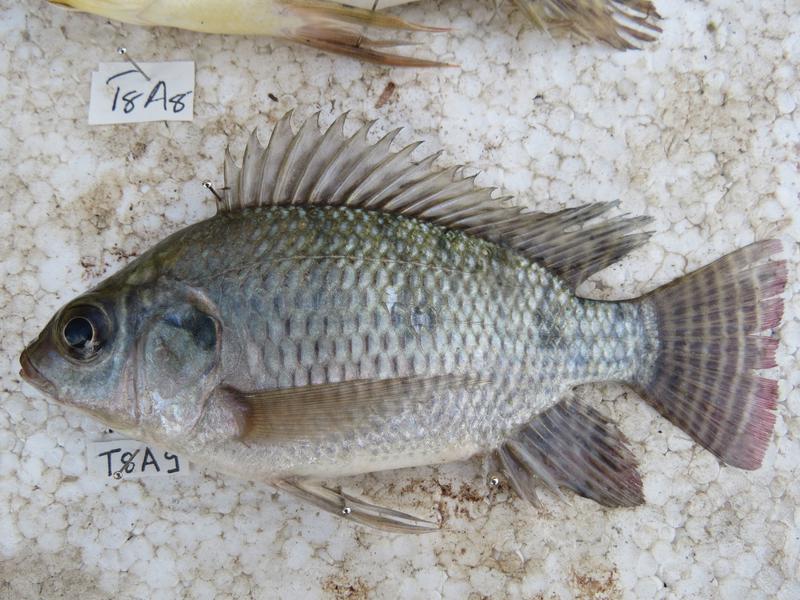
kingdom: Animalia
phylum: Chordata
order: Perciformes
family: Cichlidae
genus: Oreochromis
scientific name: Oreochromis niloticus
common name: Nile tilapia
